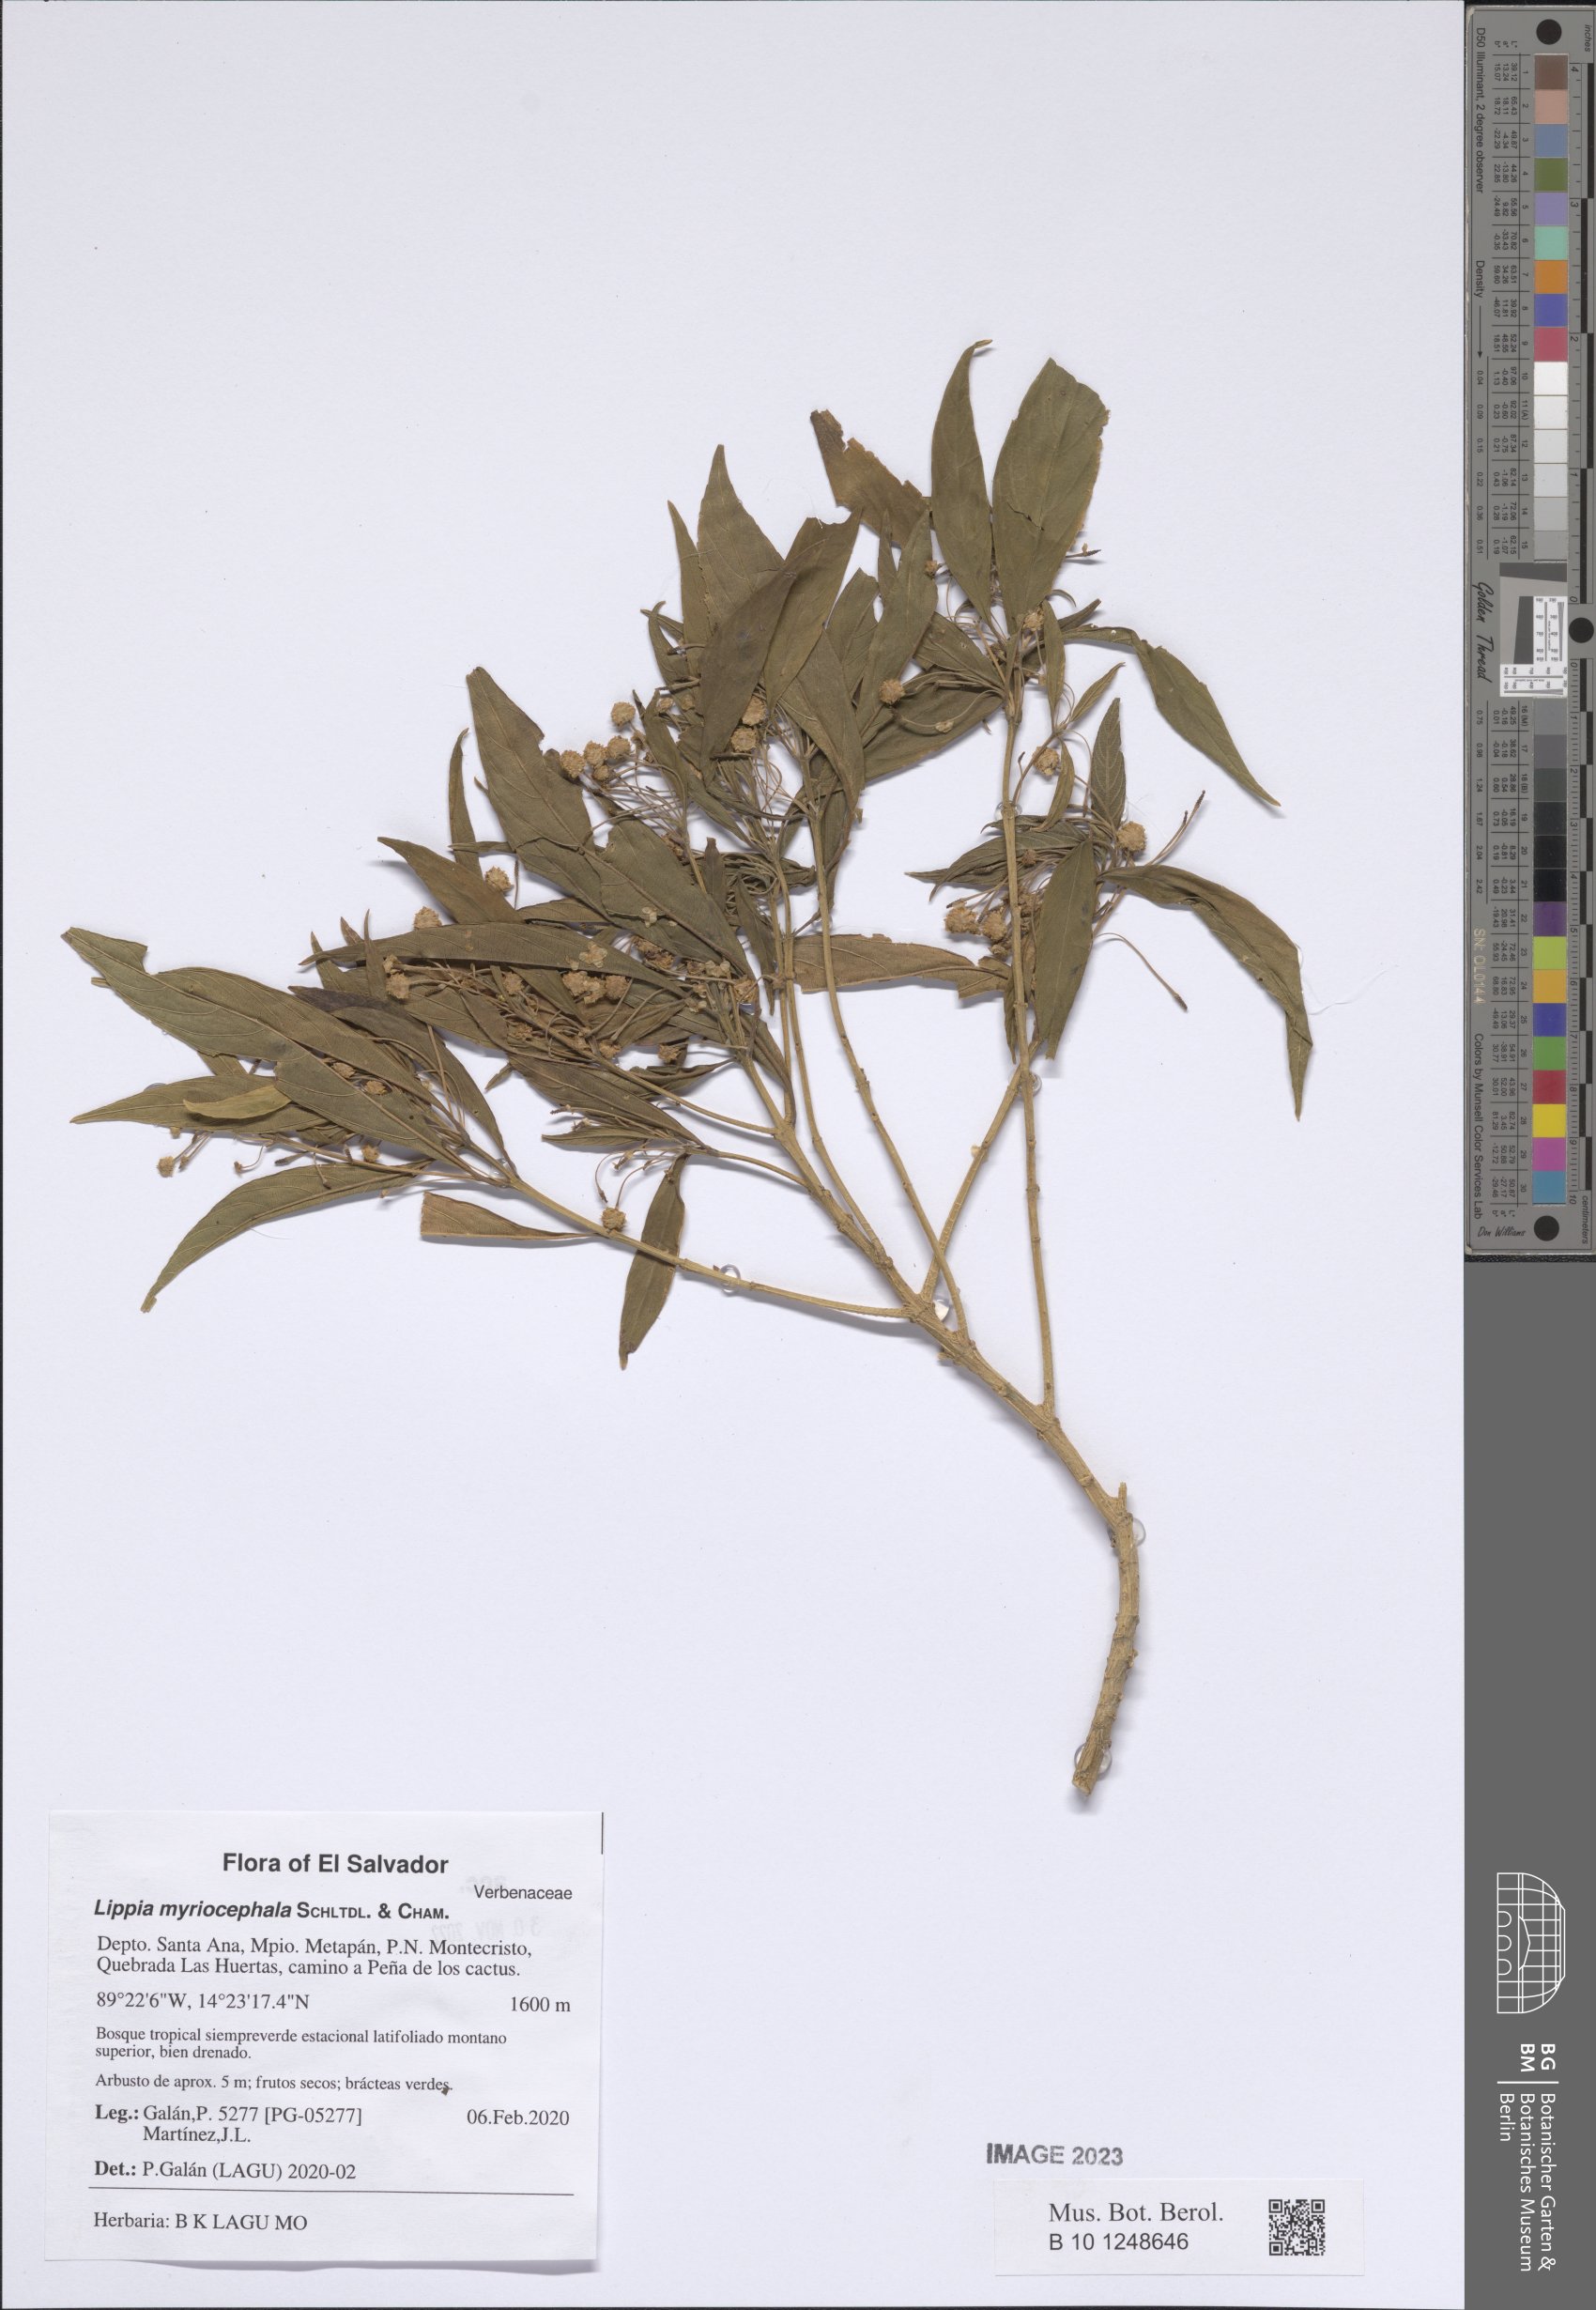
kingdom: Plantae
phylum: Tracheophyta
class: Magnoliopsida
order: Lamiales
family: Verbenaceae
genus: Lippia
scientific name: Lippia myriocephala
